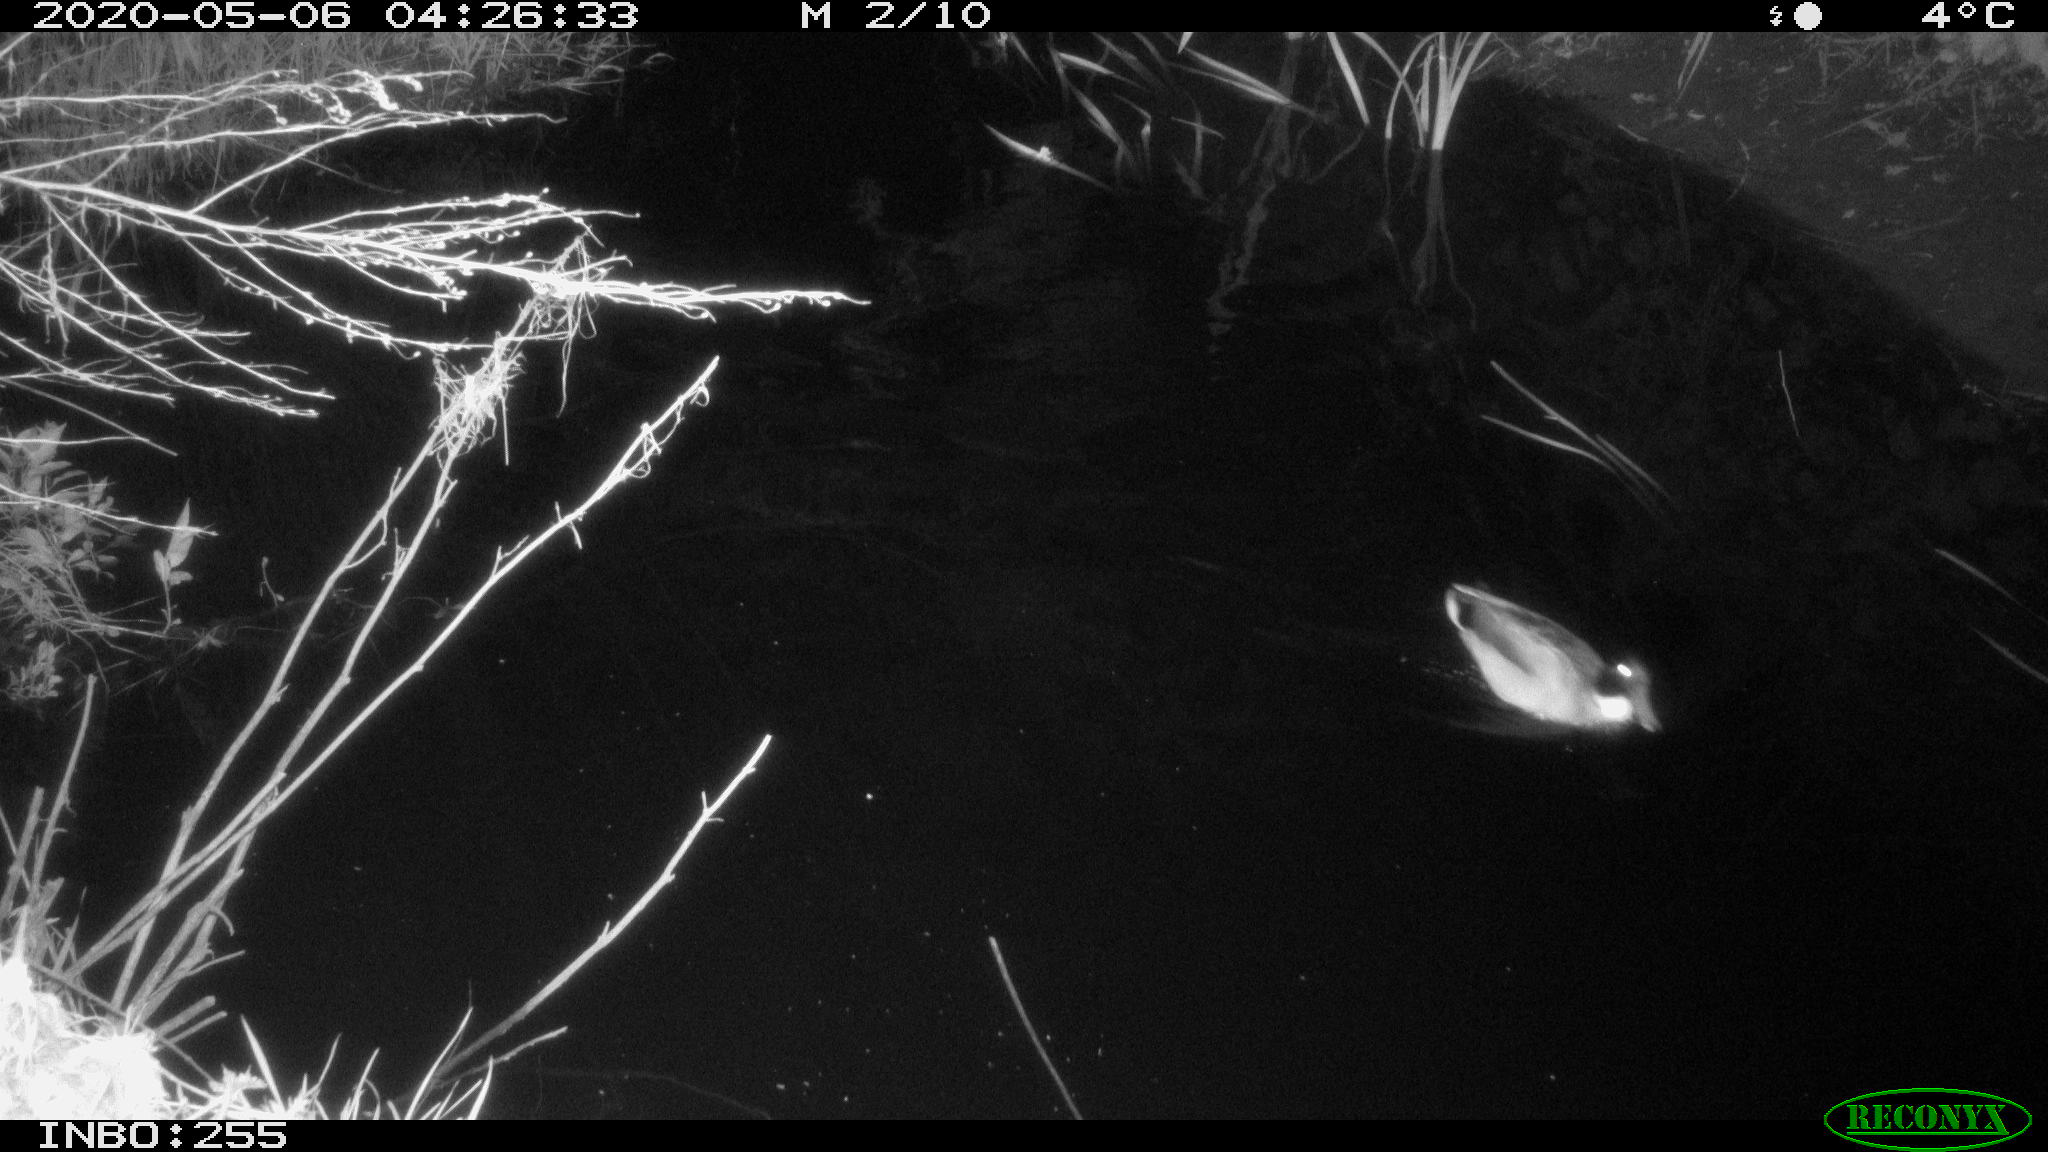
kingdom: Animalia
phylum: Chordata
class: Aves
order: Anseriformes
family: Anatidae
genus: Anas
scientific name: Anas platyrhynchos
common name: Mallard
